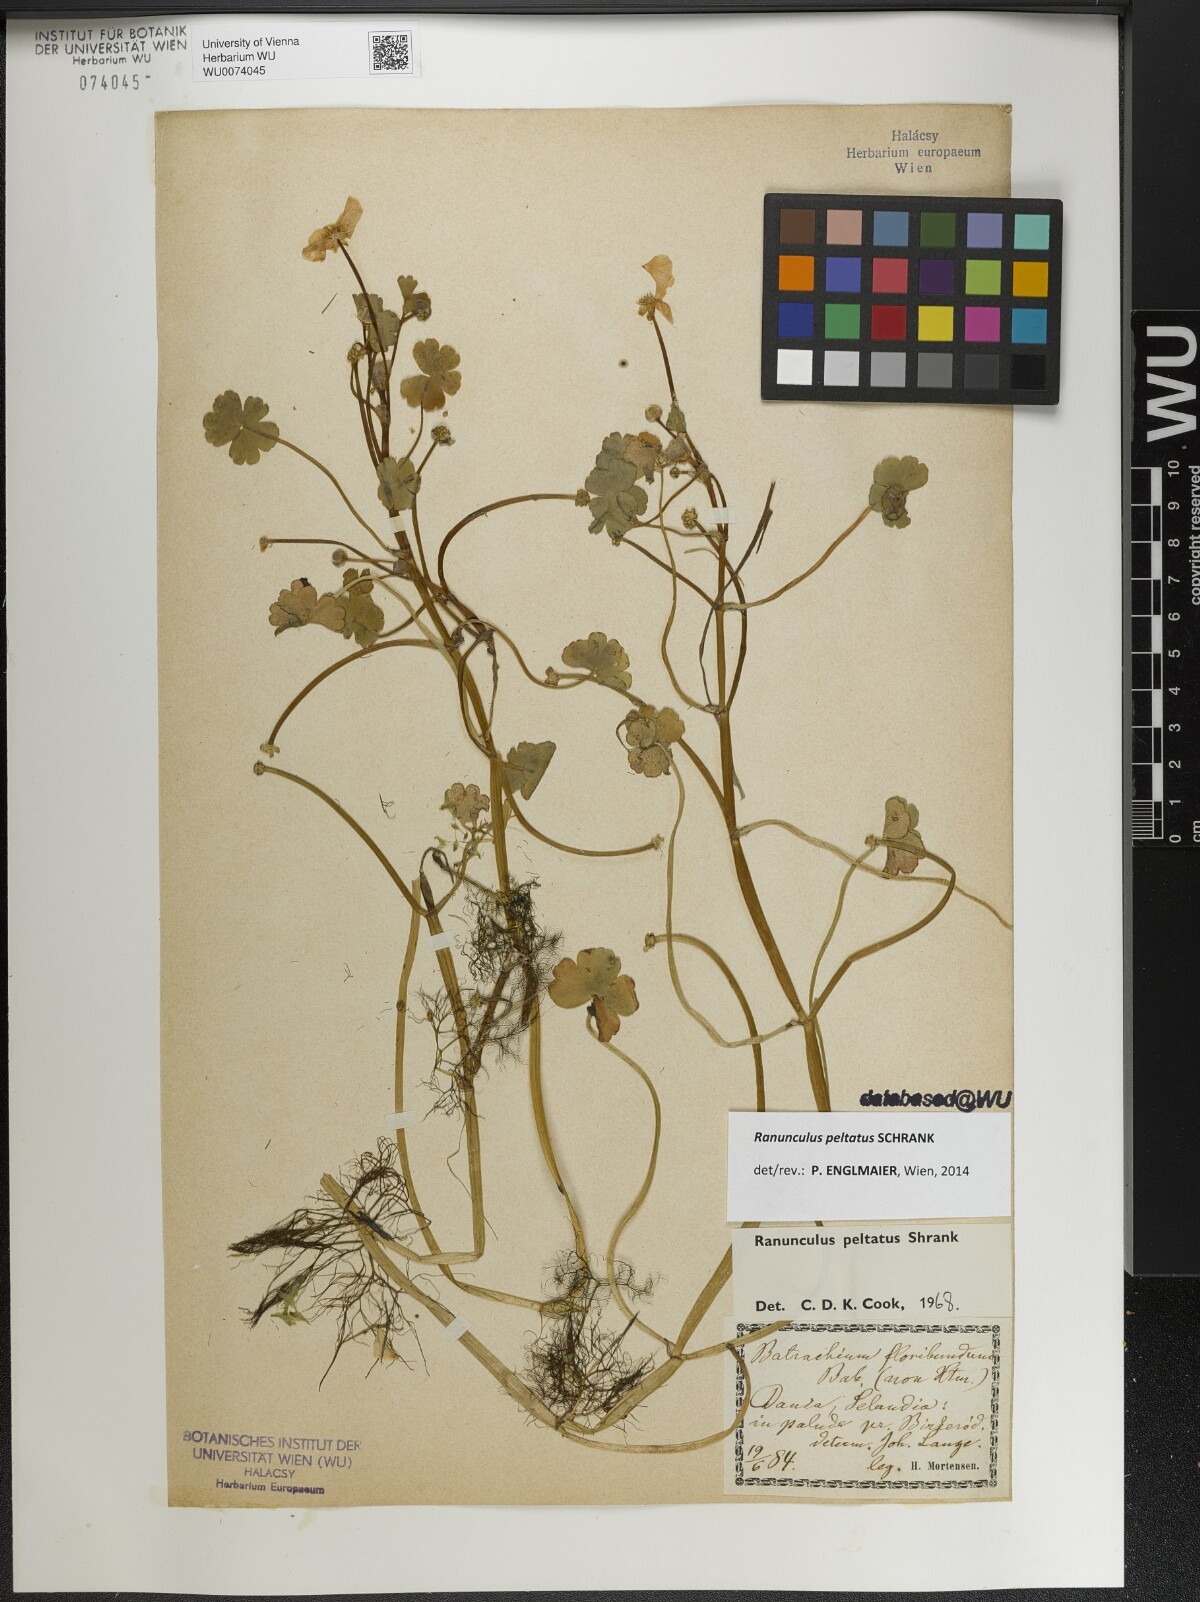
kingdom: Plantae
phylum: Tracheophyta
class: Magnoliopsida
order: Ranunculales
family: Ranunculaceae
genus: Ranunculus
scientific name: Ranunculus peltatus
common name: Pond water-crowfoot
